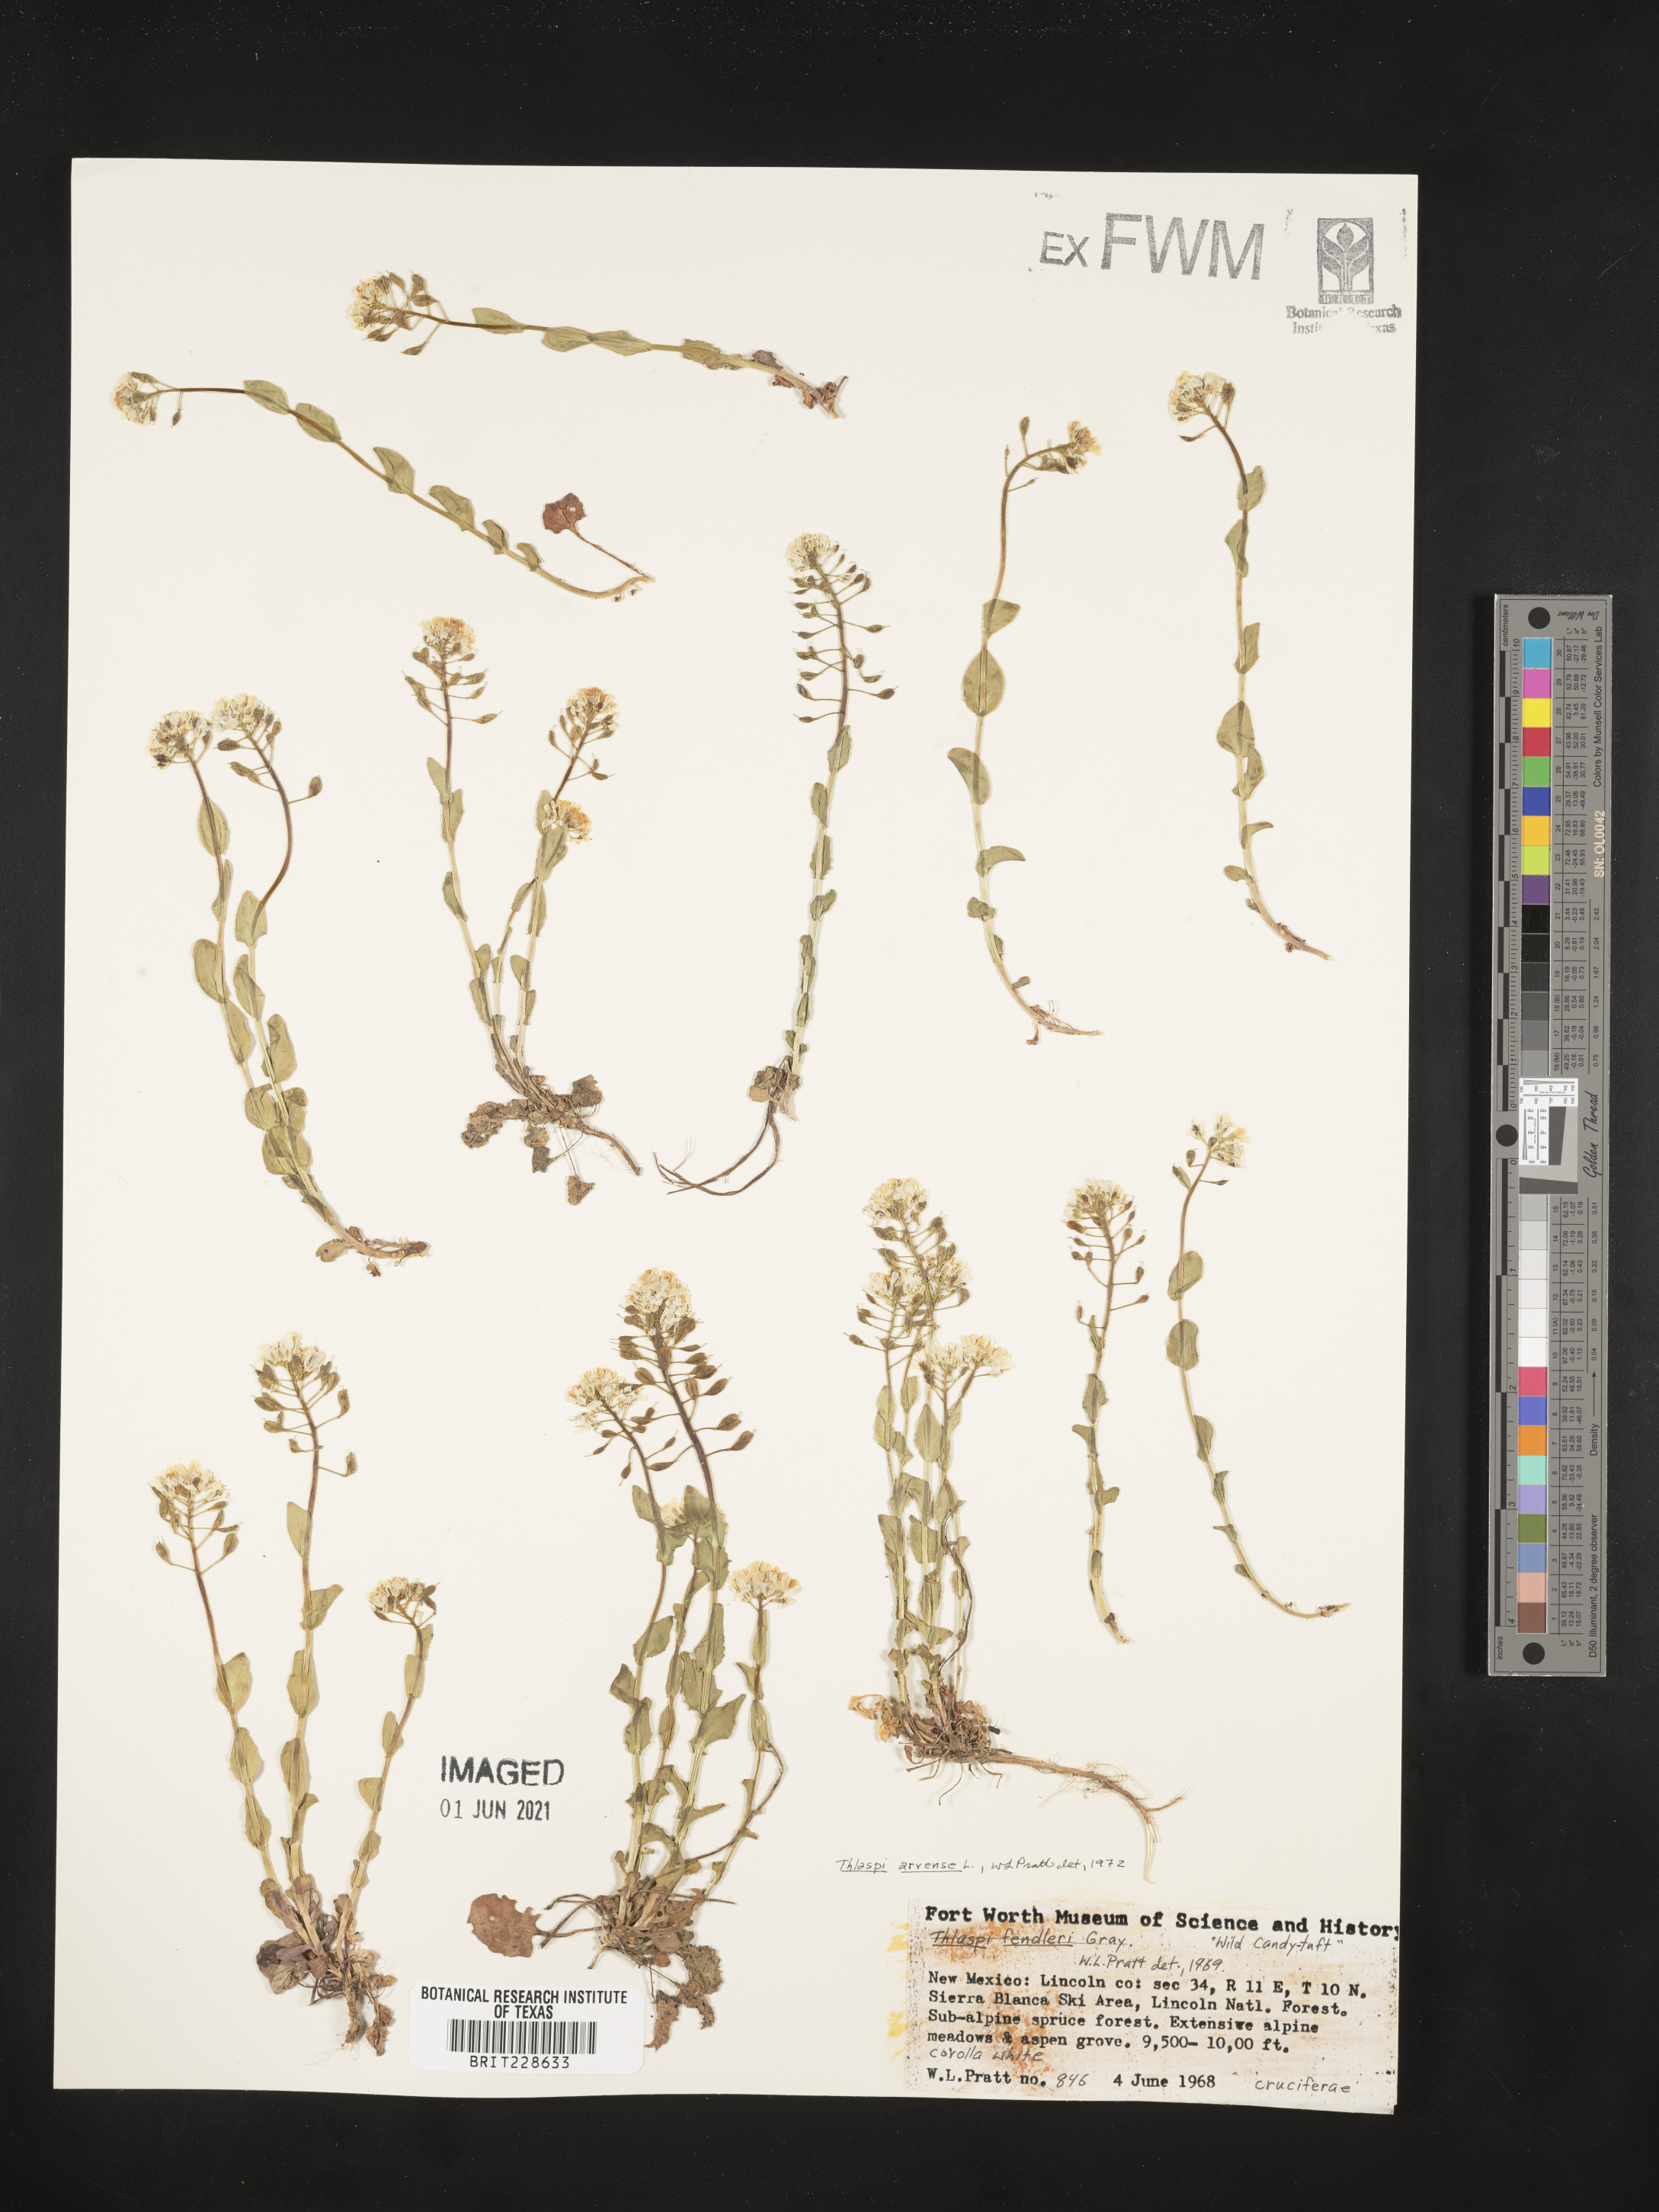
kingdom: Plantae
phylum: Tracheophyta
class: Magnoliopsida
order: Brassicales
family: Brassicaceae
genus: Thlaspi
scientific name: Thlaspi arvense
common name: Field pennycress
